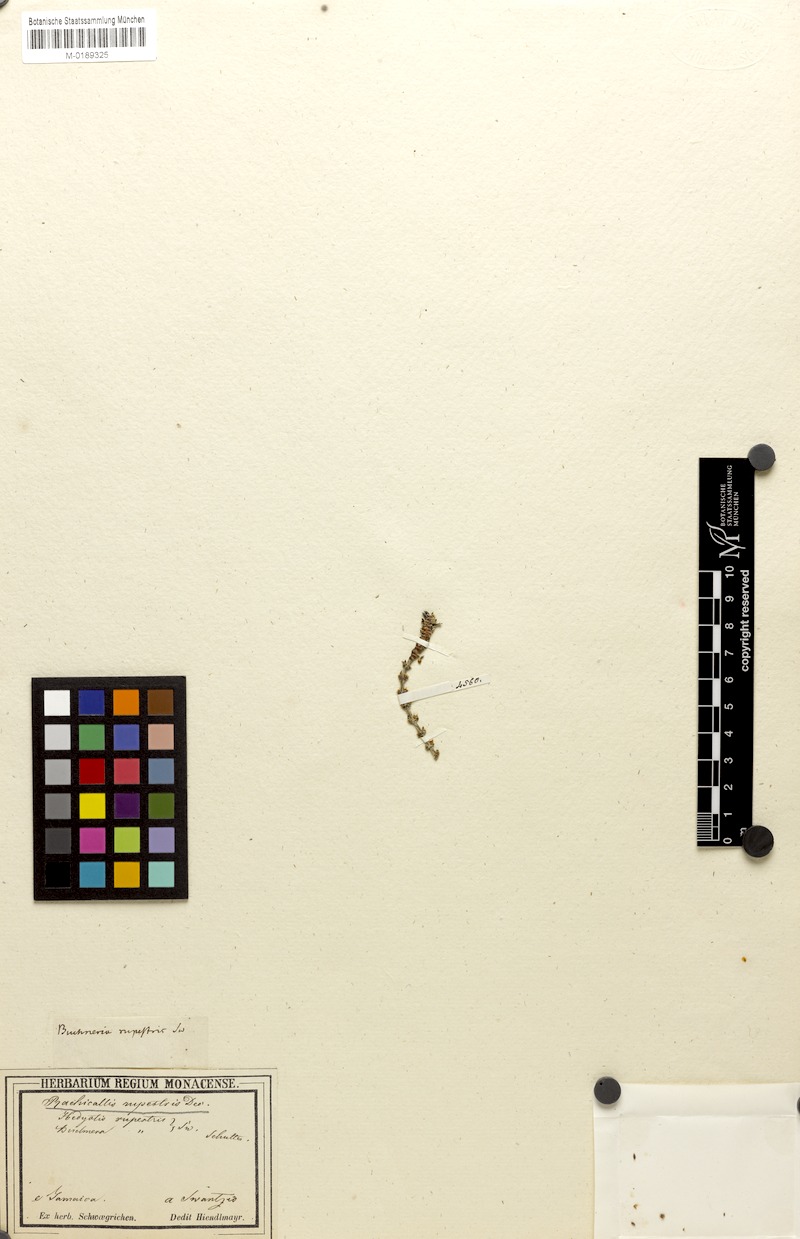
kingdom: Plantae
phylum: Tracheophyta
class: Magnoliopsida
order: Gentianales
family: Rubiaceae
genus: Rachicallis
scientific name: Rachicallis americana
